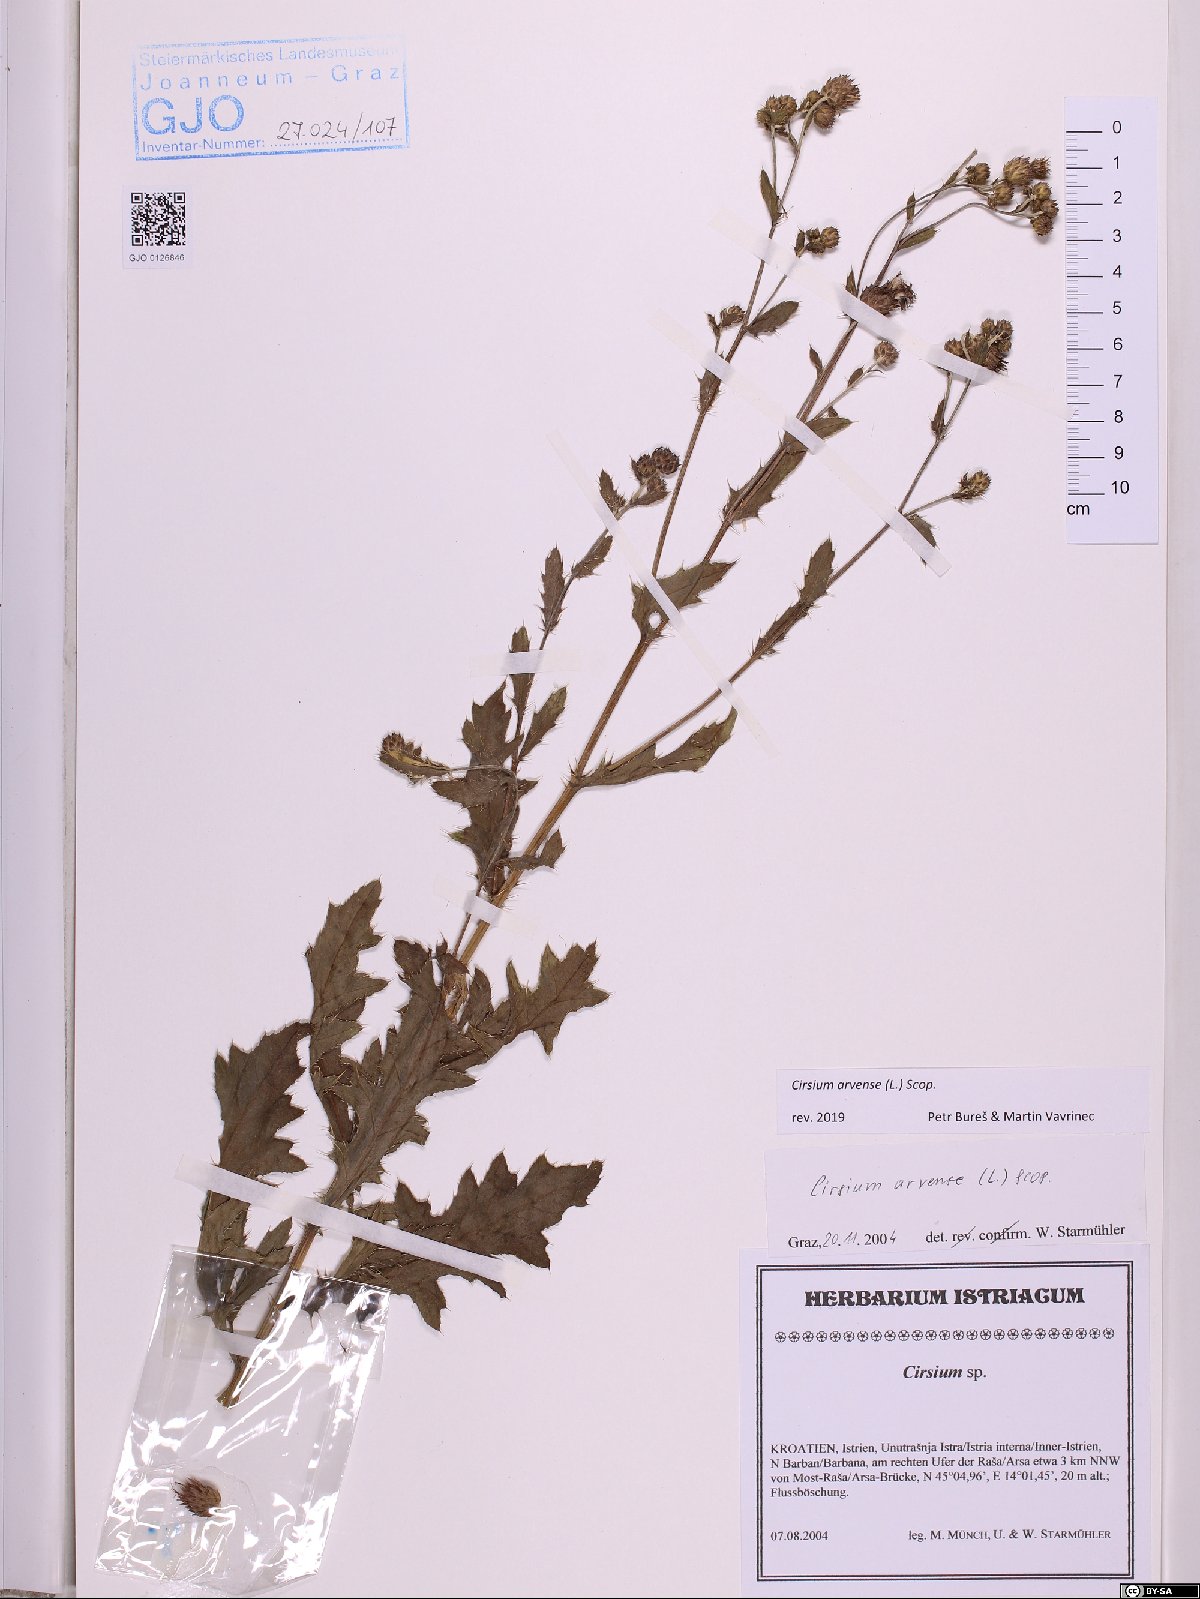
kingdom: Plantae
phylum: Tracheophyta
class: Magnoliopsida
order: Asterales
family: Asteraceae
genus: Cirsium
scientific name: Cirsium arvense
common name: Creeping thistle
